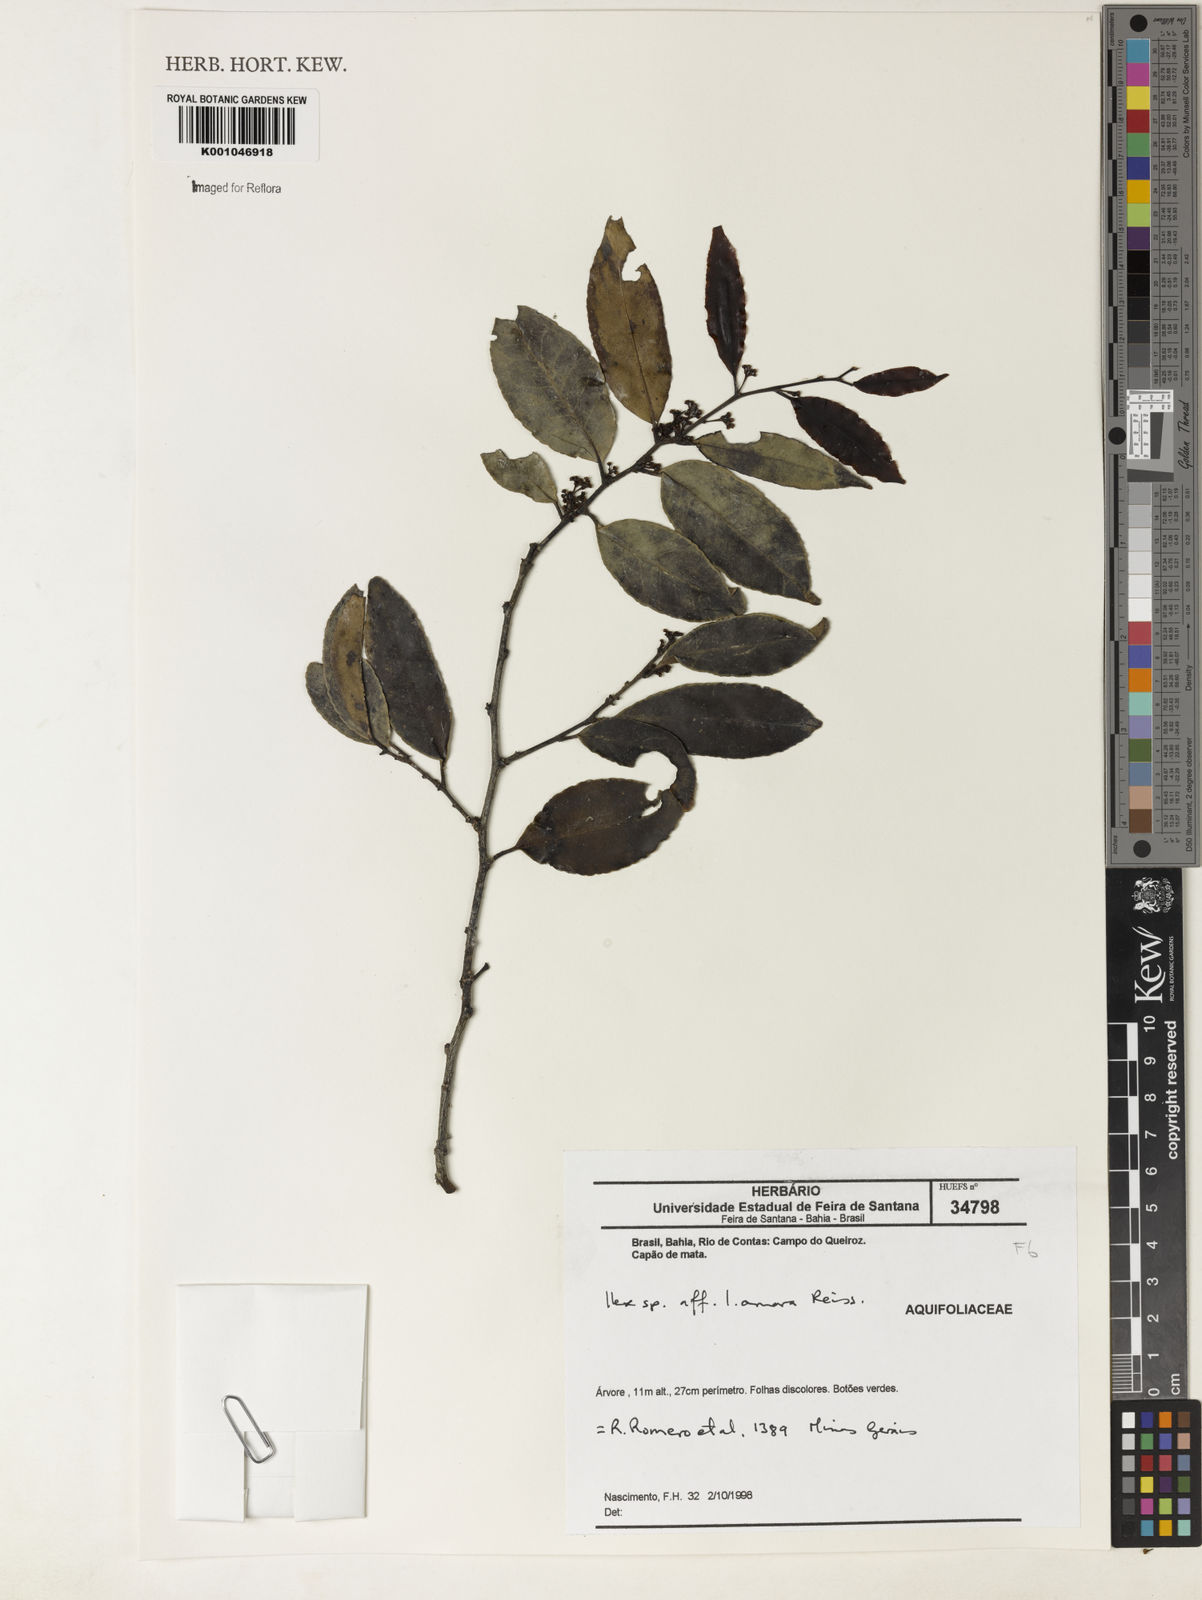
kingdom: Plantae
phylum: Tracheophyta
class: Magnoliopsida
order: Aquifoliales
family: Aquifoliaceae
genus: Ilex
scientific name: Ilex
